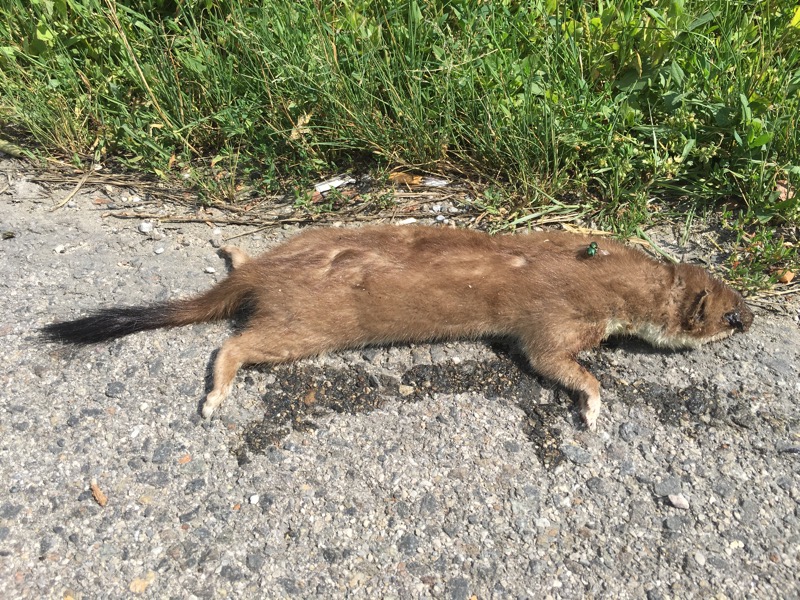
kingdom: Animalia
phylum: Chordata
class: Mammalia
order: Carnivora
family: Mustelidae
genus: Mustela
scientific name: Mustela erminea
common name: Stoat
